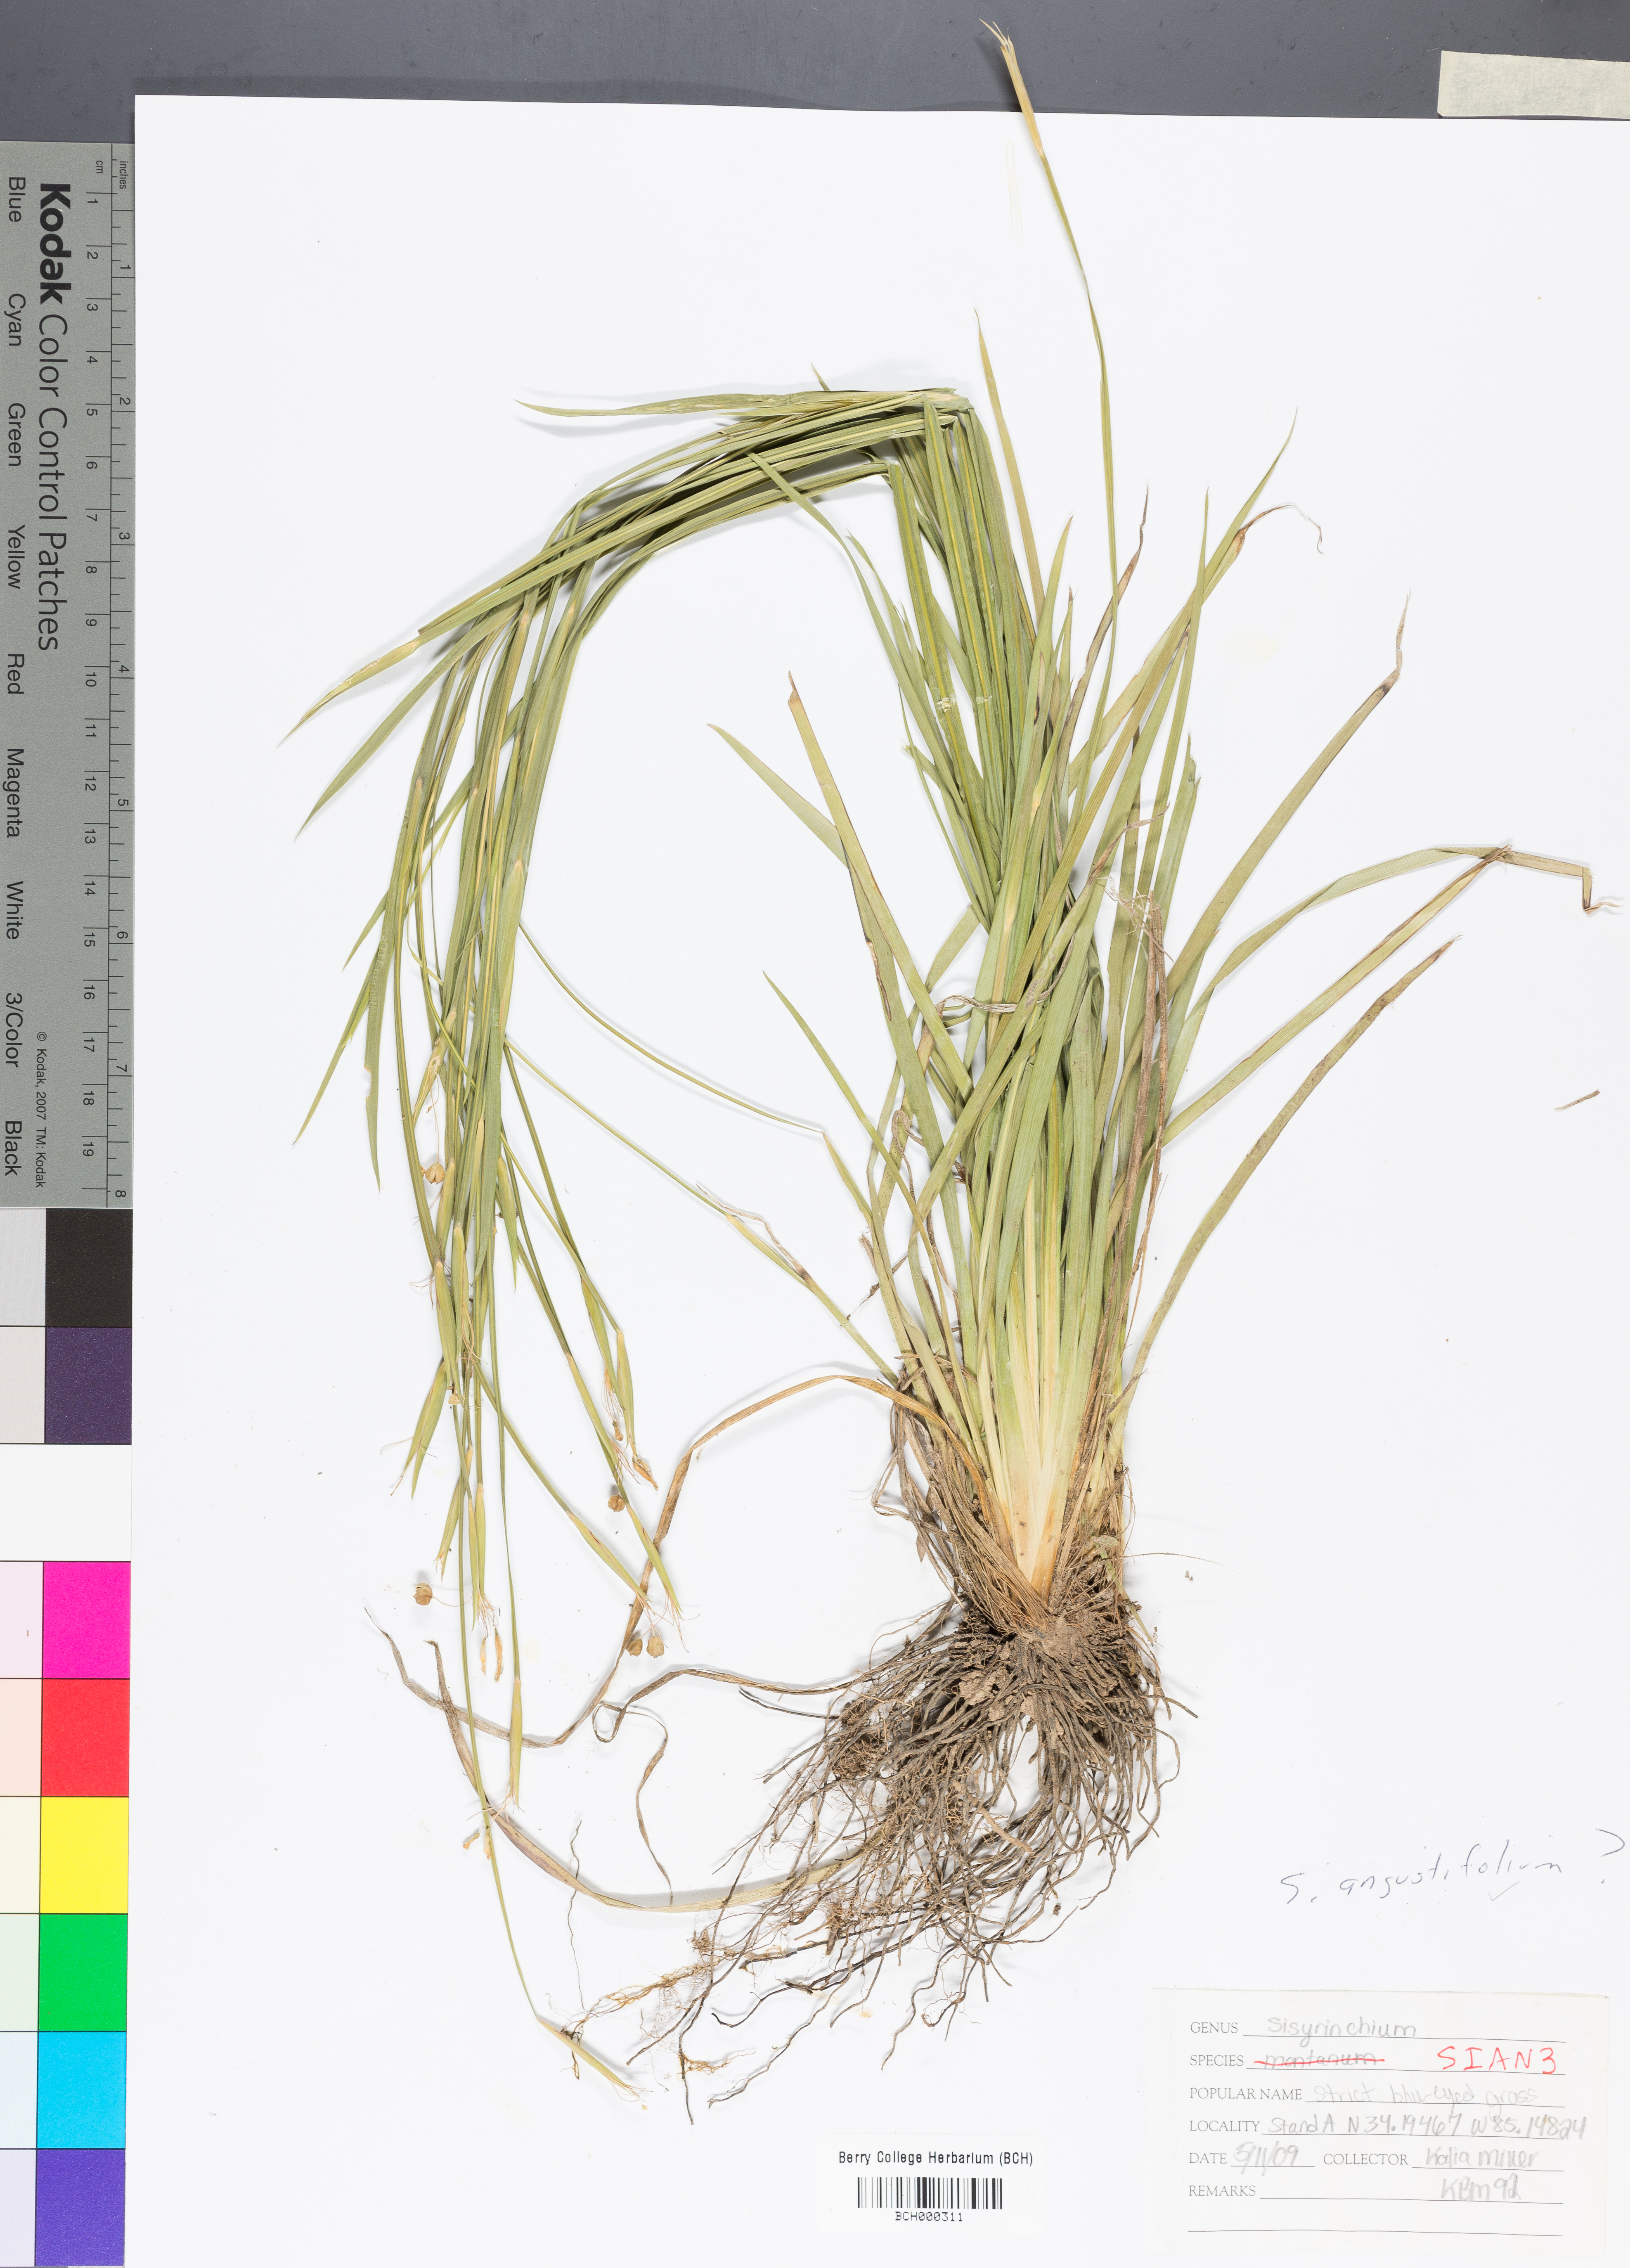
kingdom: Plantae
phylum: Tracheophyta
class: Liliopsida
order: Asparagales
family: Iridaceae
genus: Sisyrinchium
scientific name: Sisyrinchium angustifolium
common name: Narrow-leaf blue-eyed-grass
